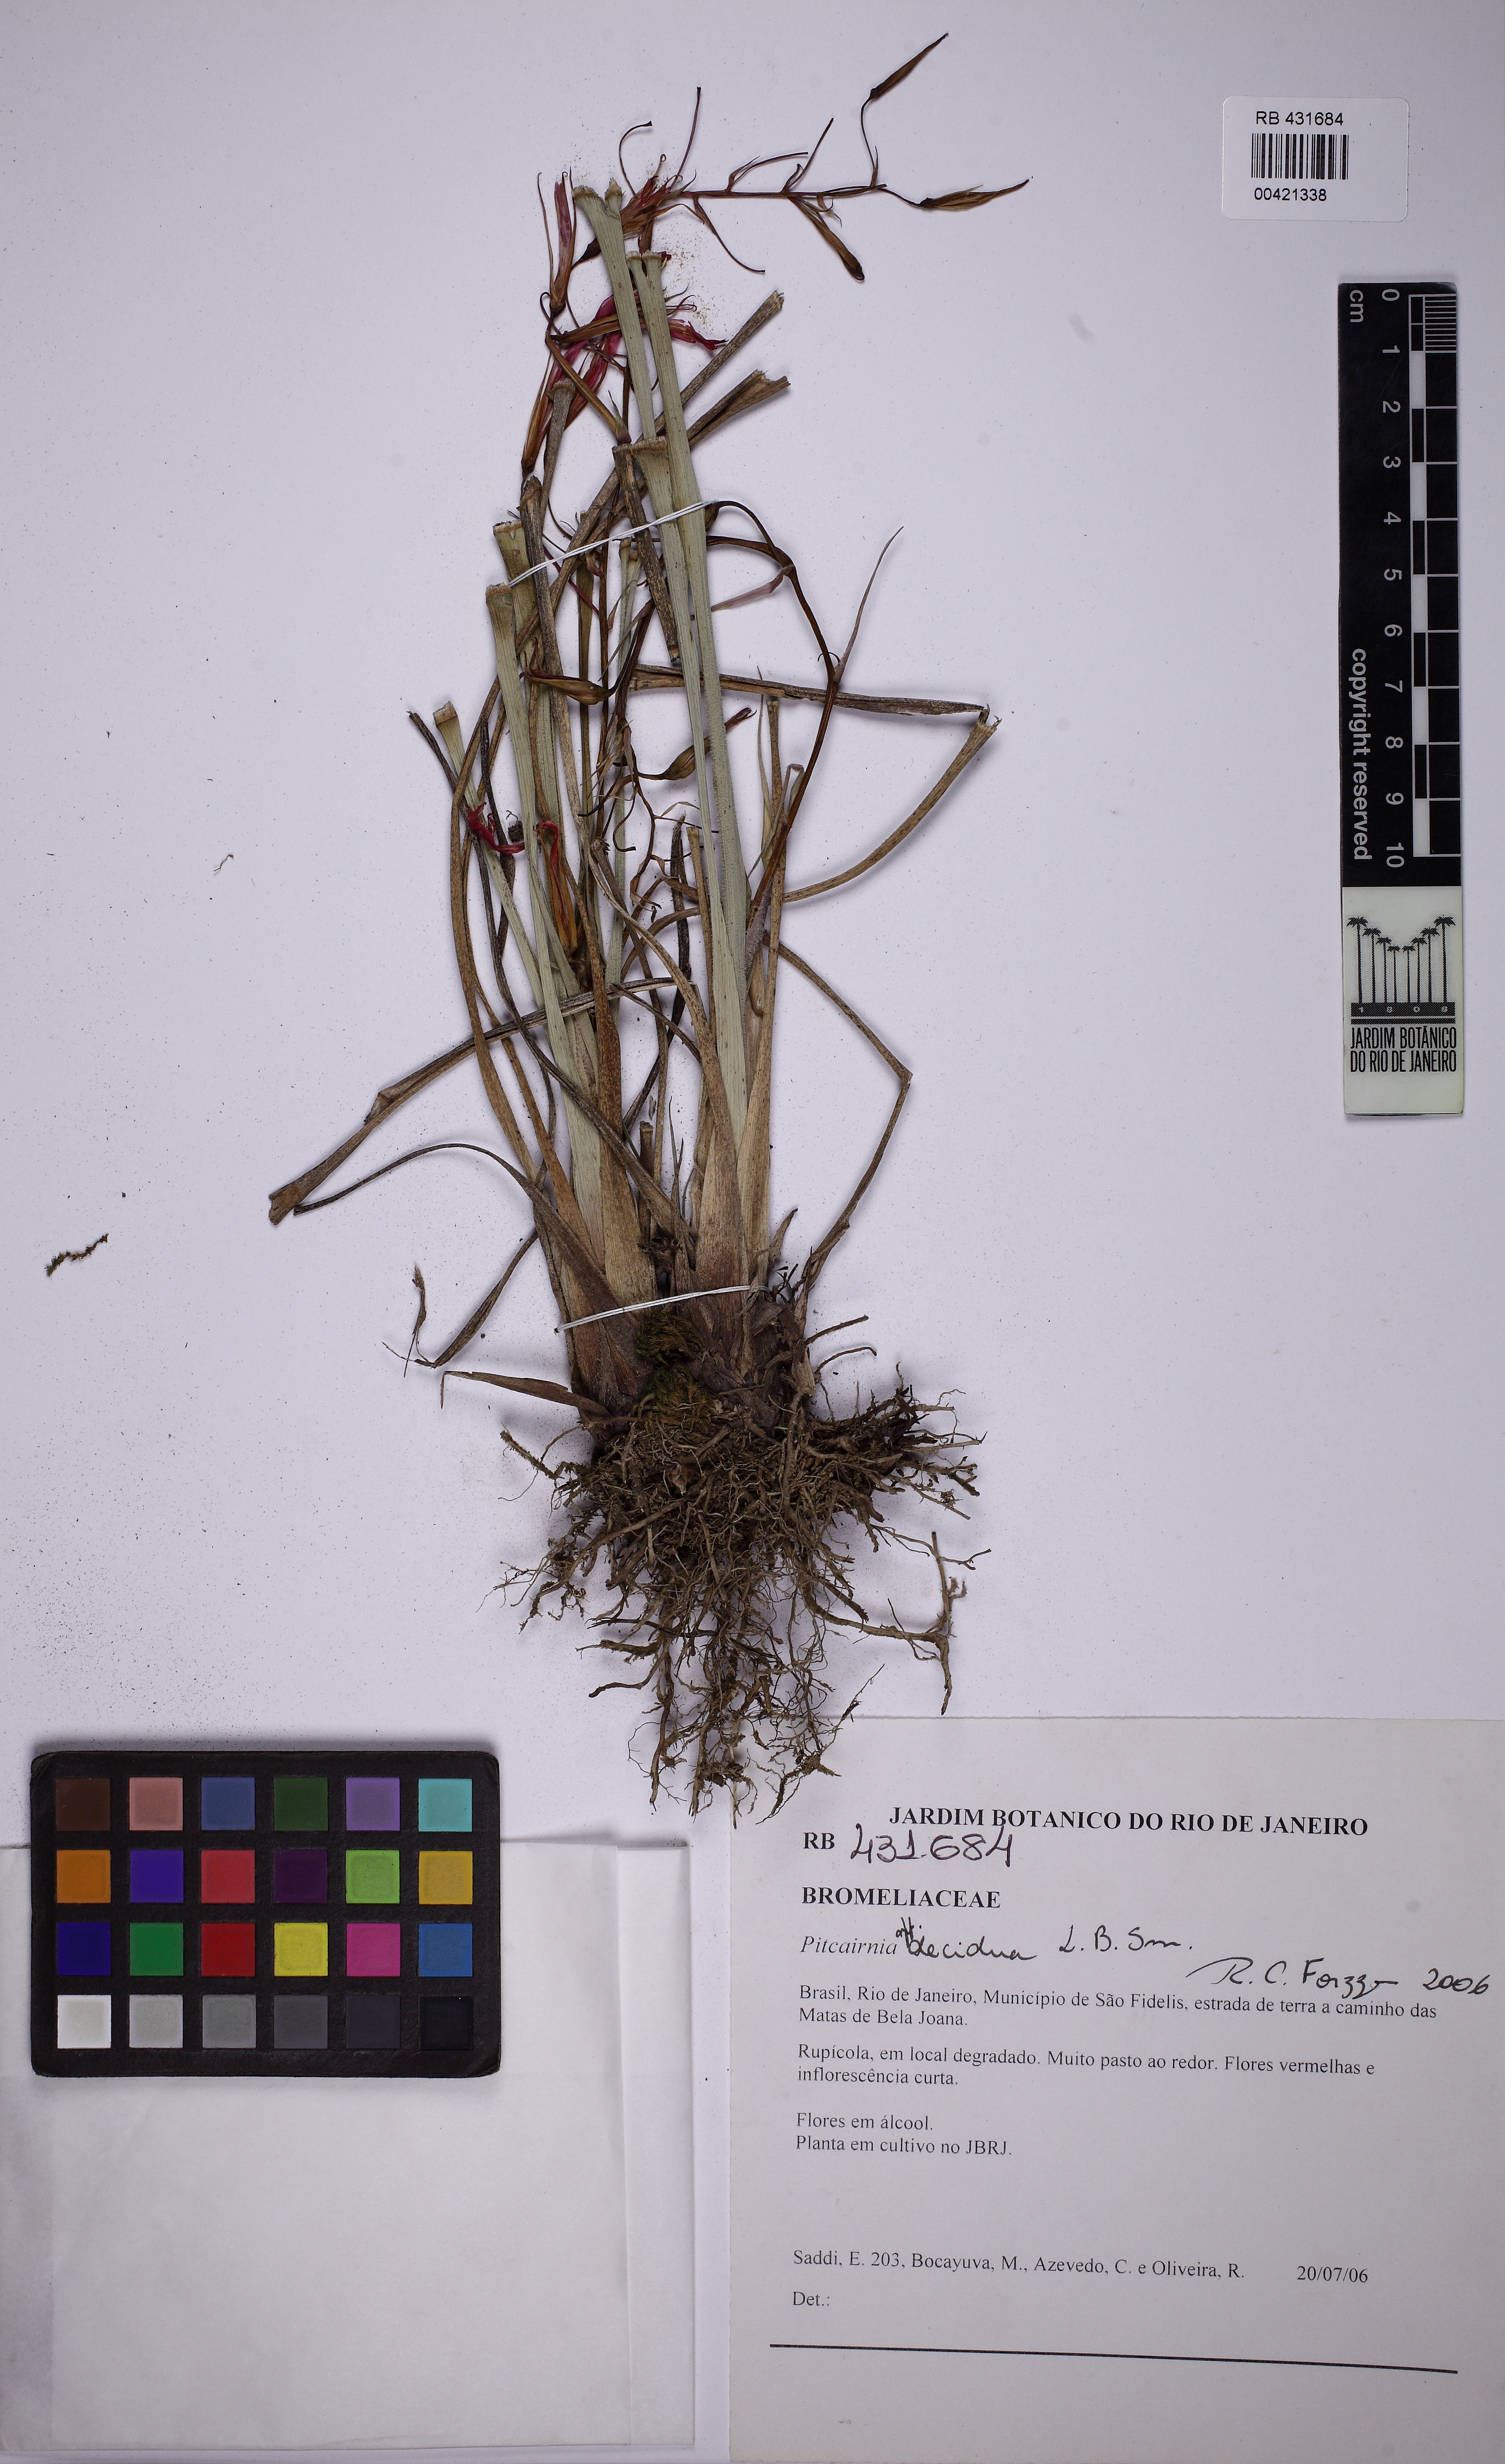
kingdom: Plantae
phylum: Tracheophyta
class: Liliopsida
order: Poales
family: Bromeliaceae
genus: Pitcairnia
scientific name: Pitcairnia decidua
